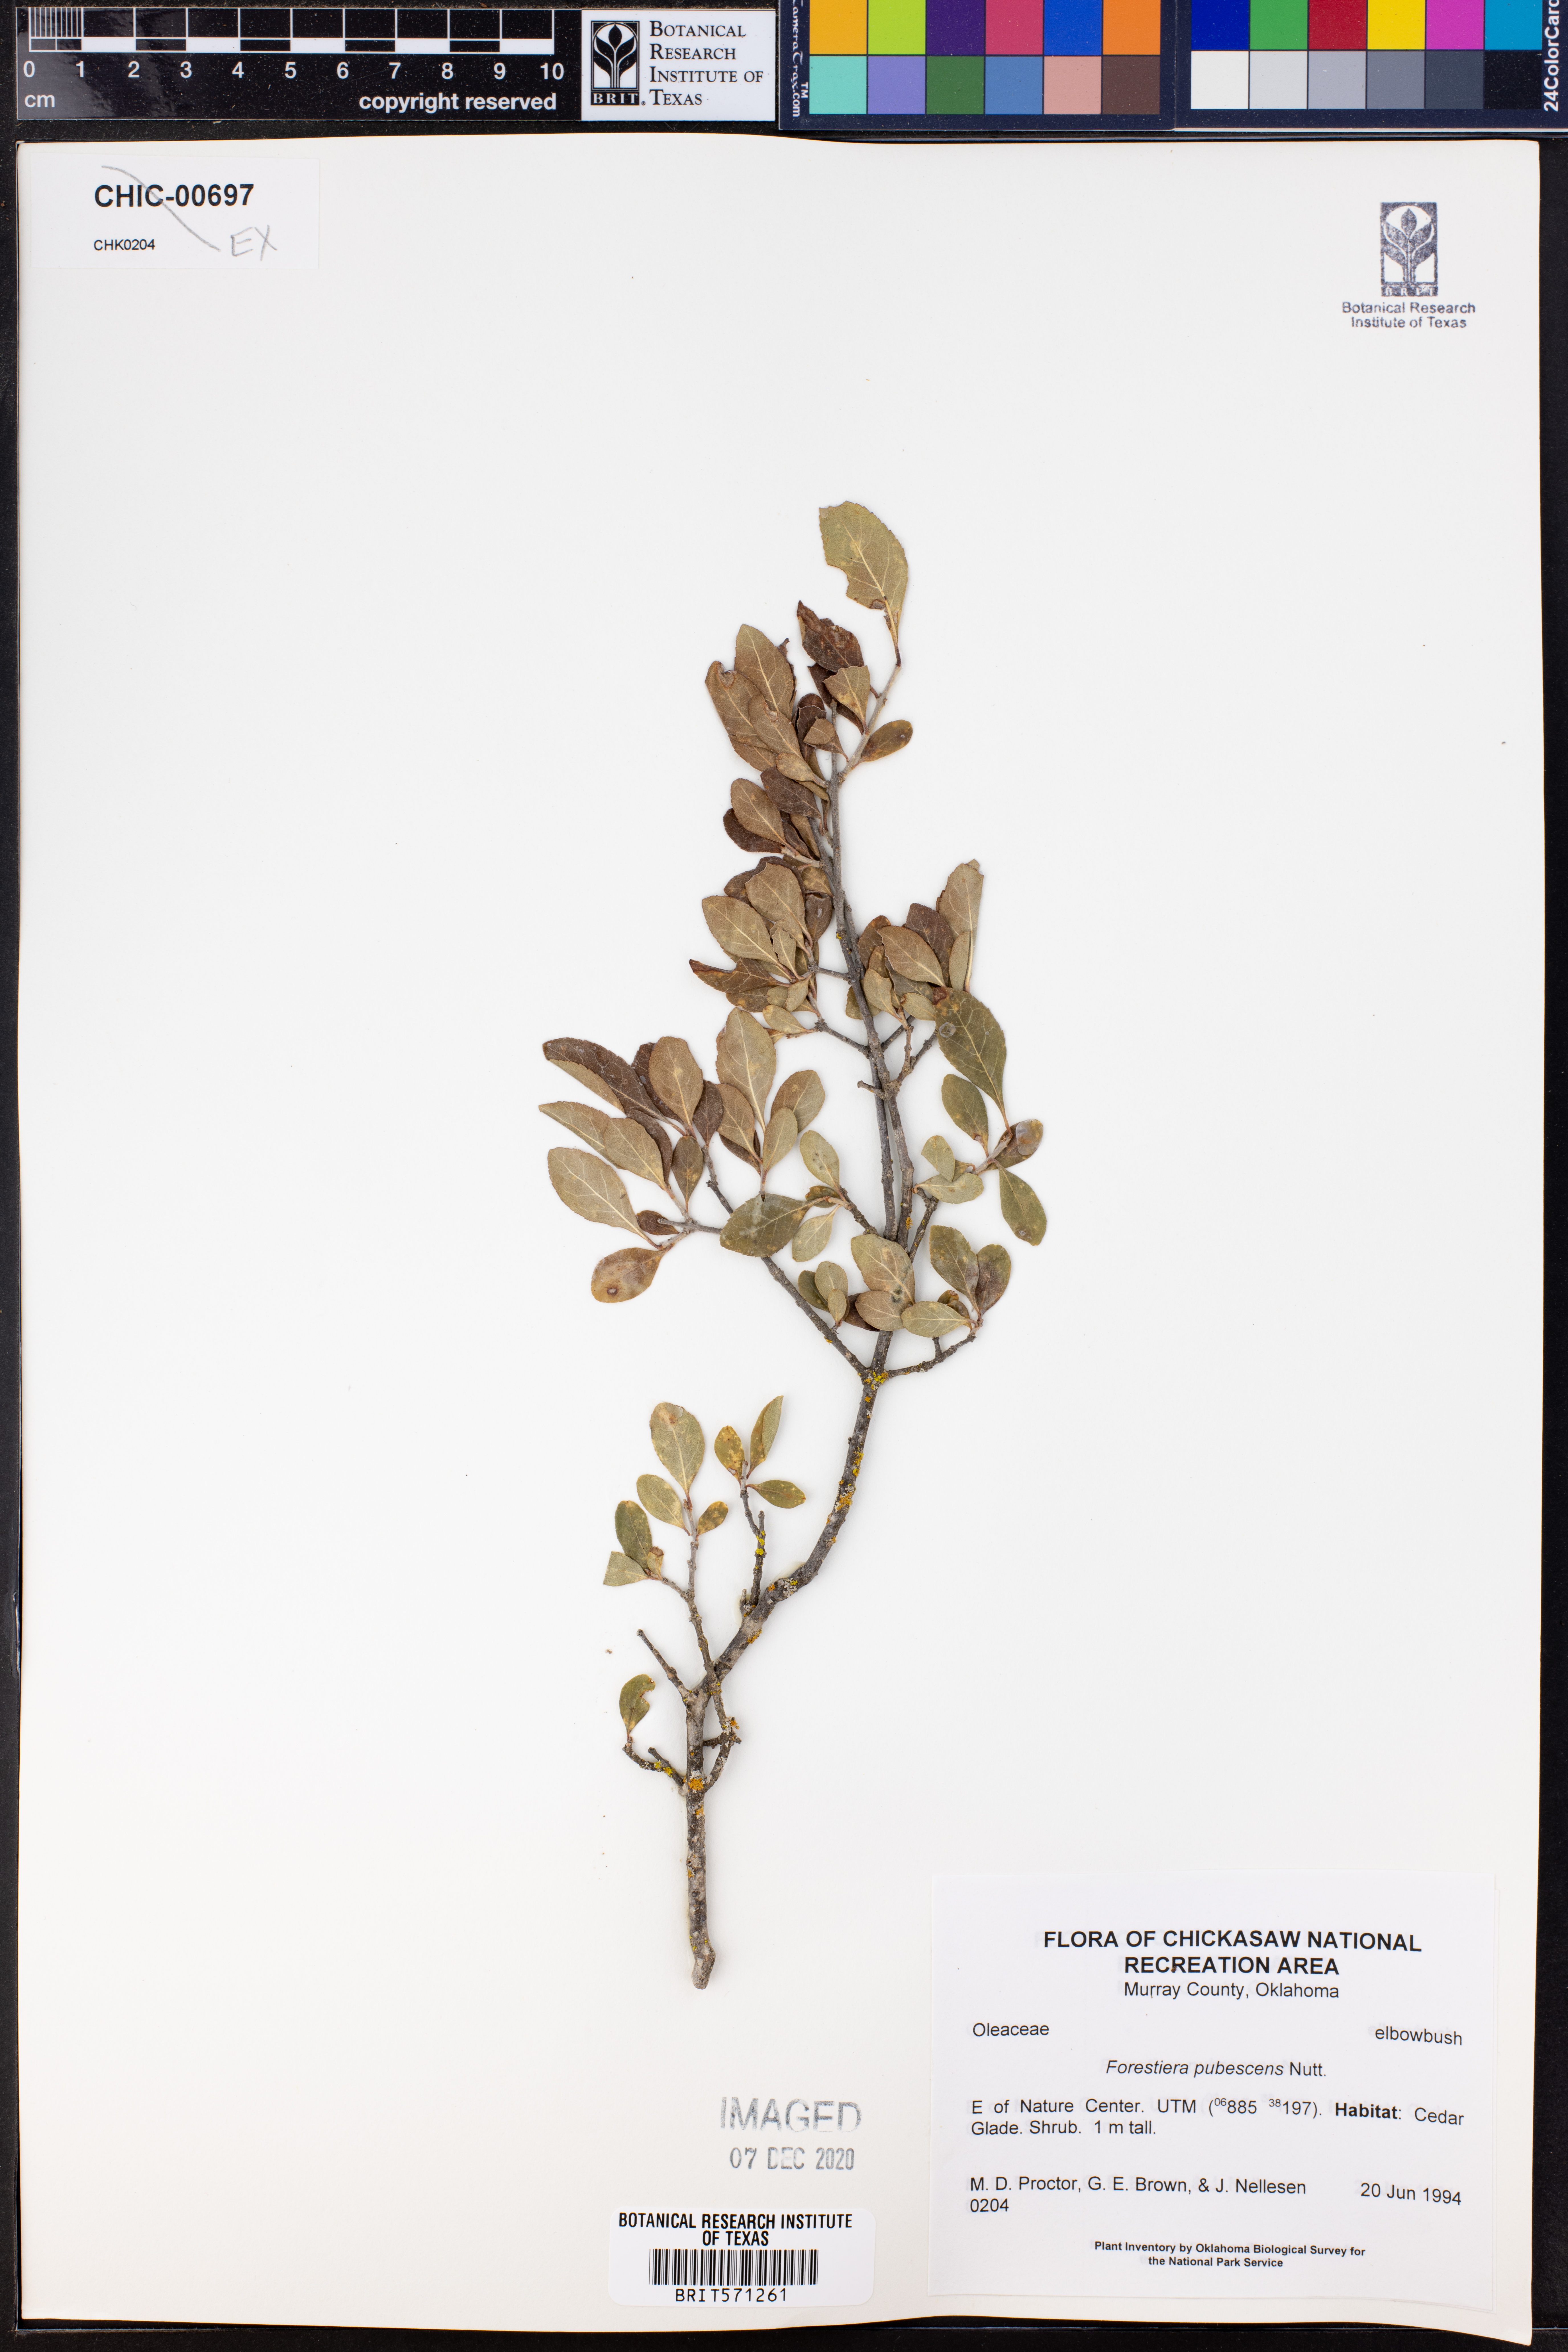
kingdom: Plantae
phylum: Tracheophyta
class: Magnoliopsida
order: Lamiales
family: Oleaceae
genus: Forestiera
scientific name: Forestiera pubescens
